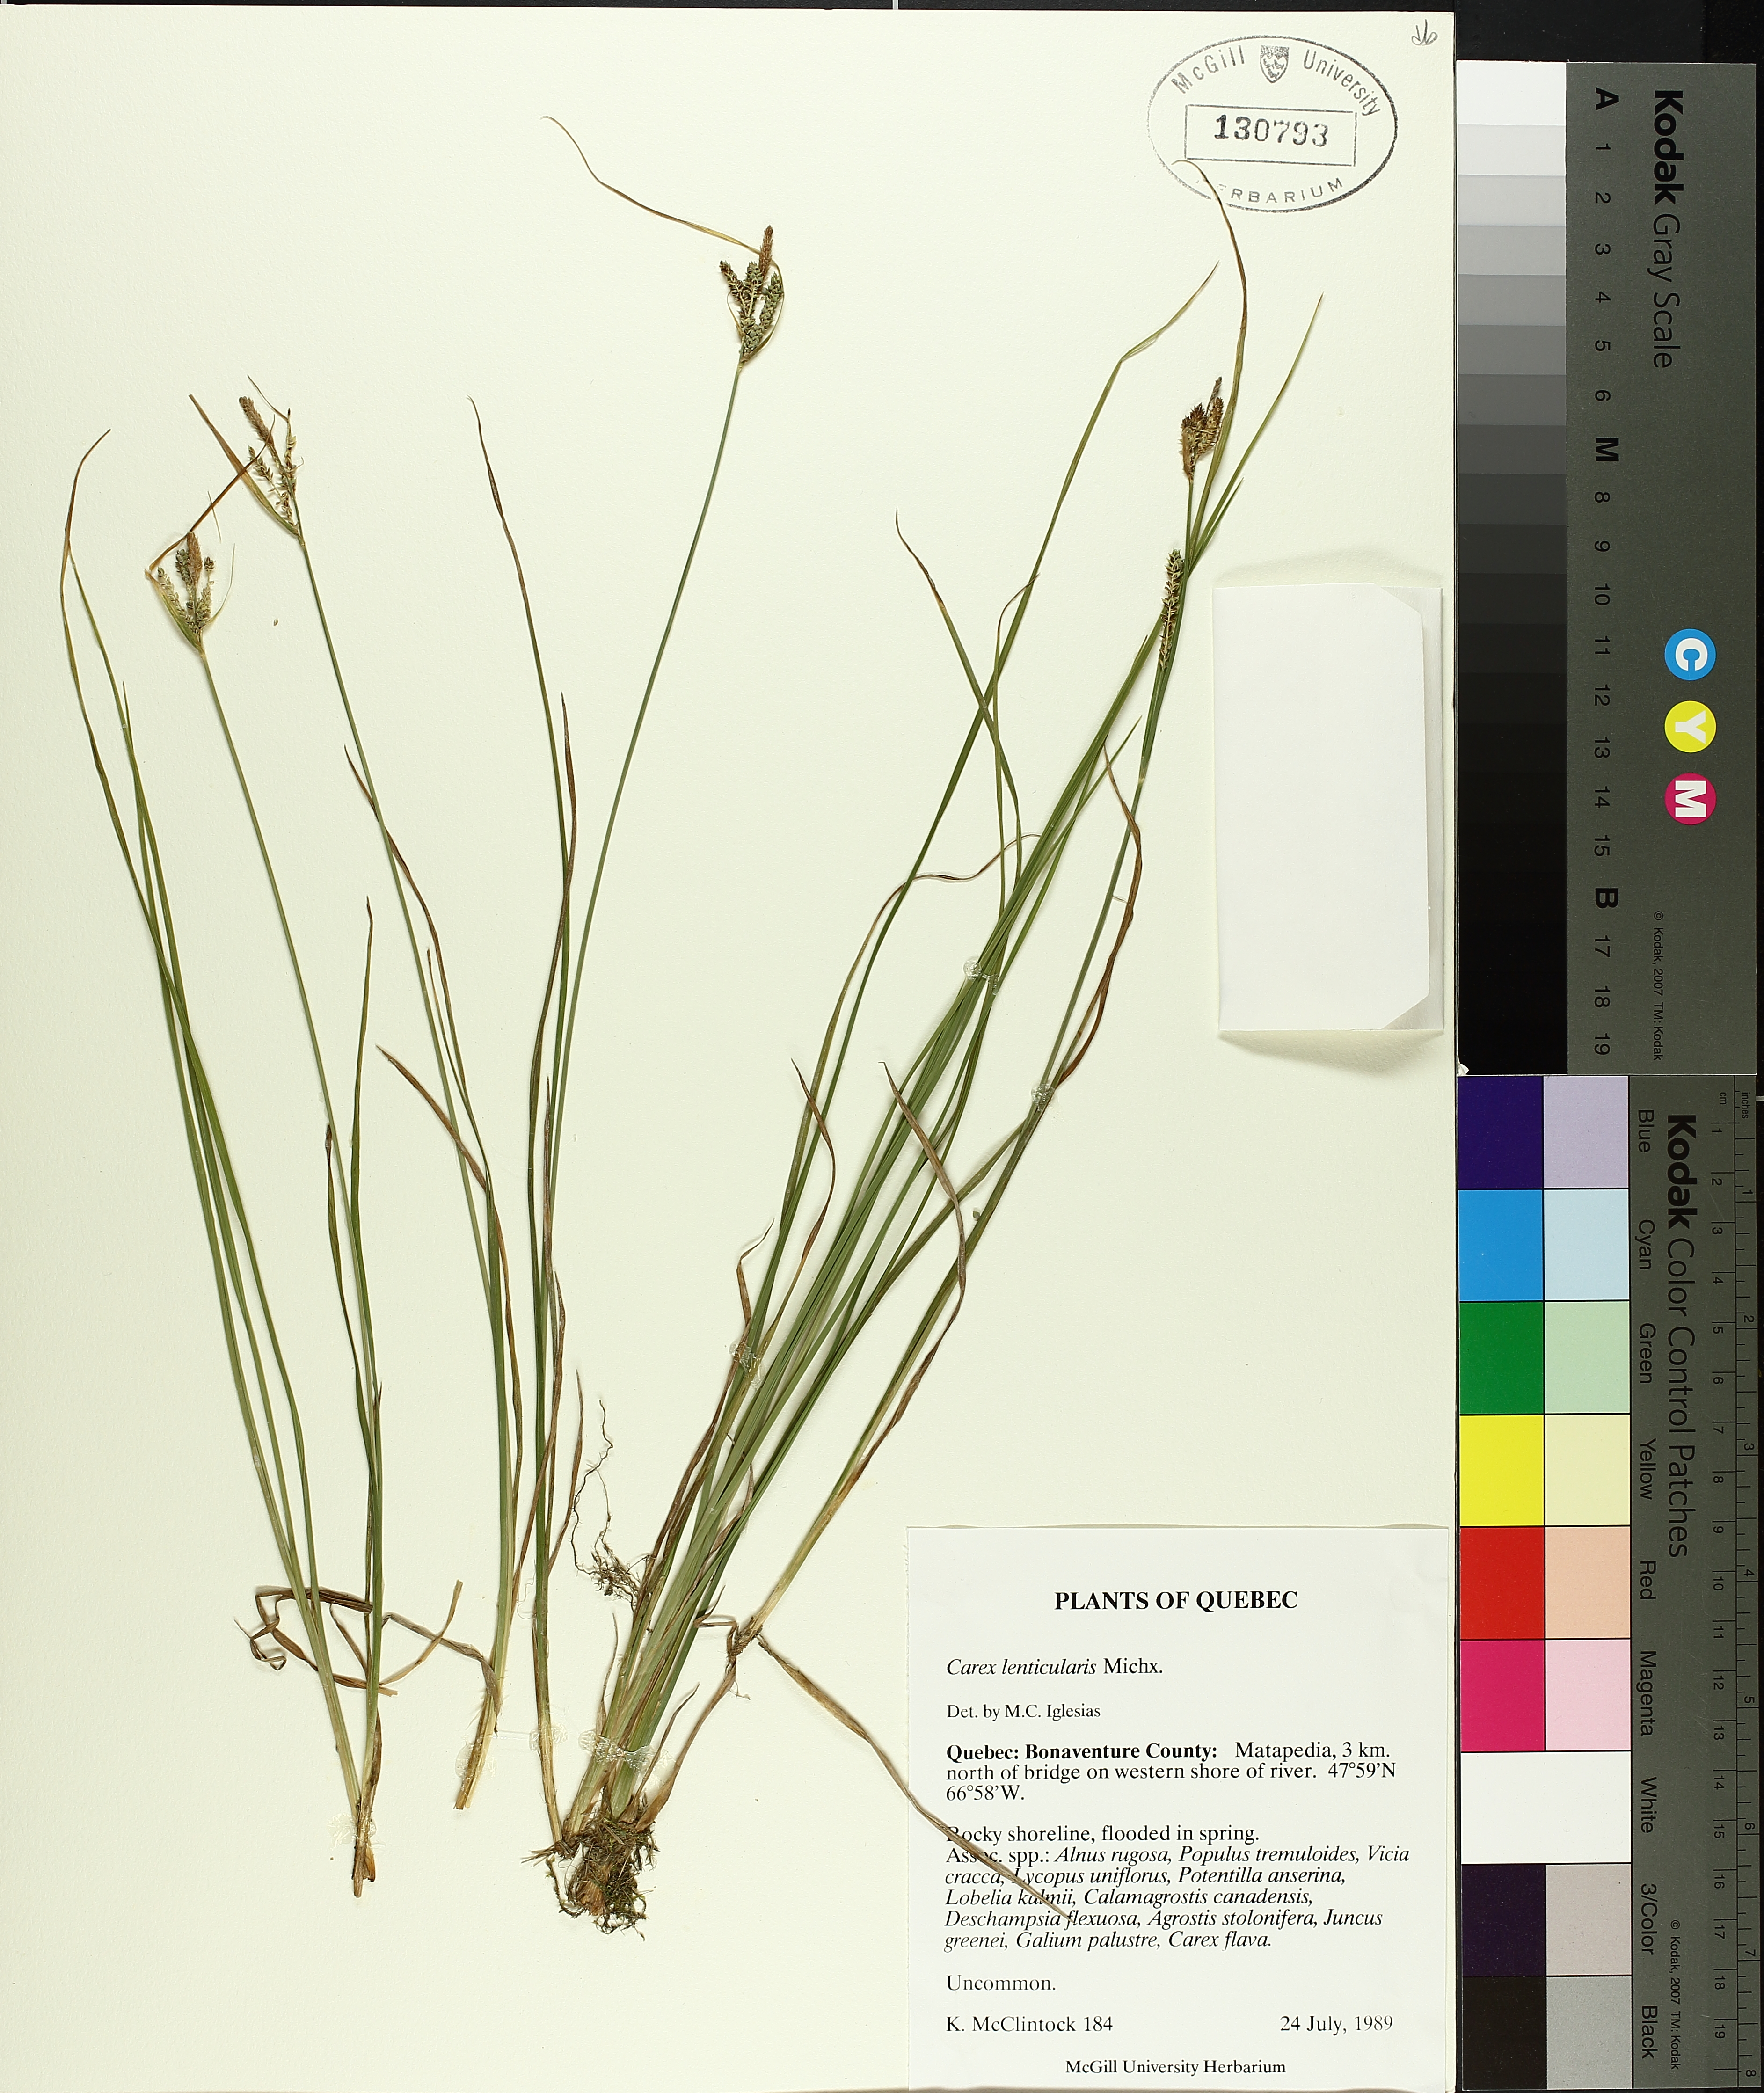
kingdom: Plantae
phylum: Tracheophyta
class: Liliopsida
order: Poales
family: Cyperaceae
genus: Carex
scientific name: Carex lenticularis
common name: Lakeshore sedge
